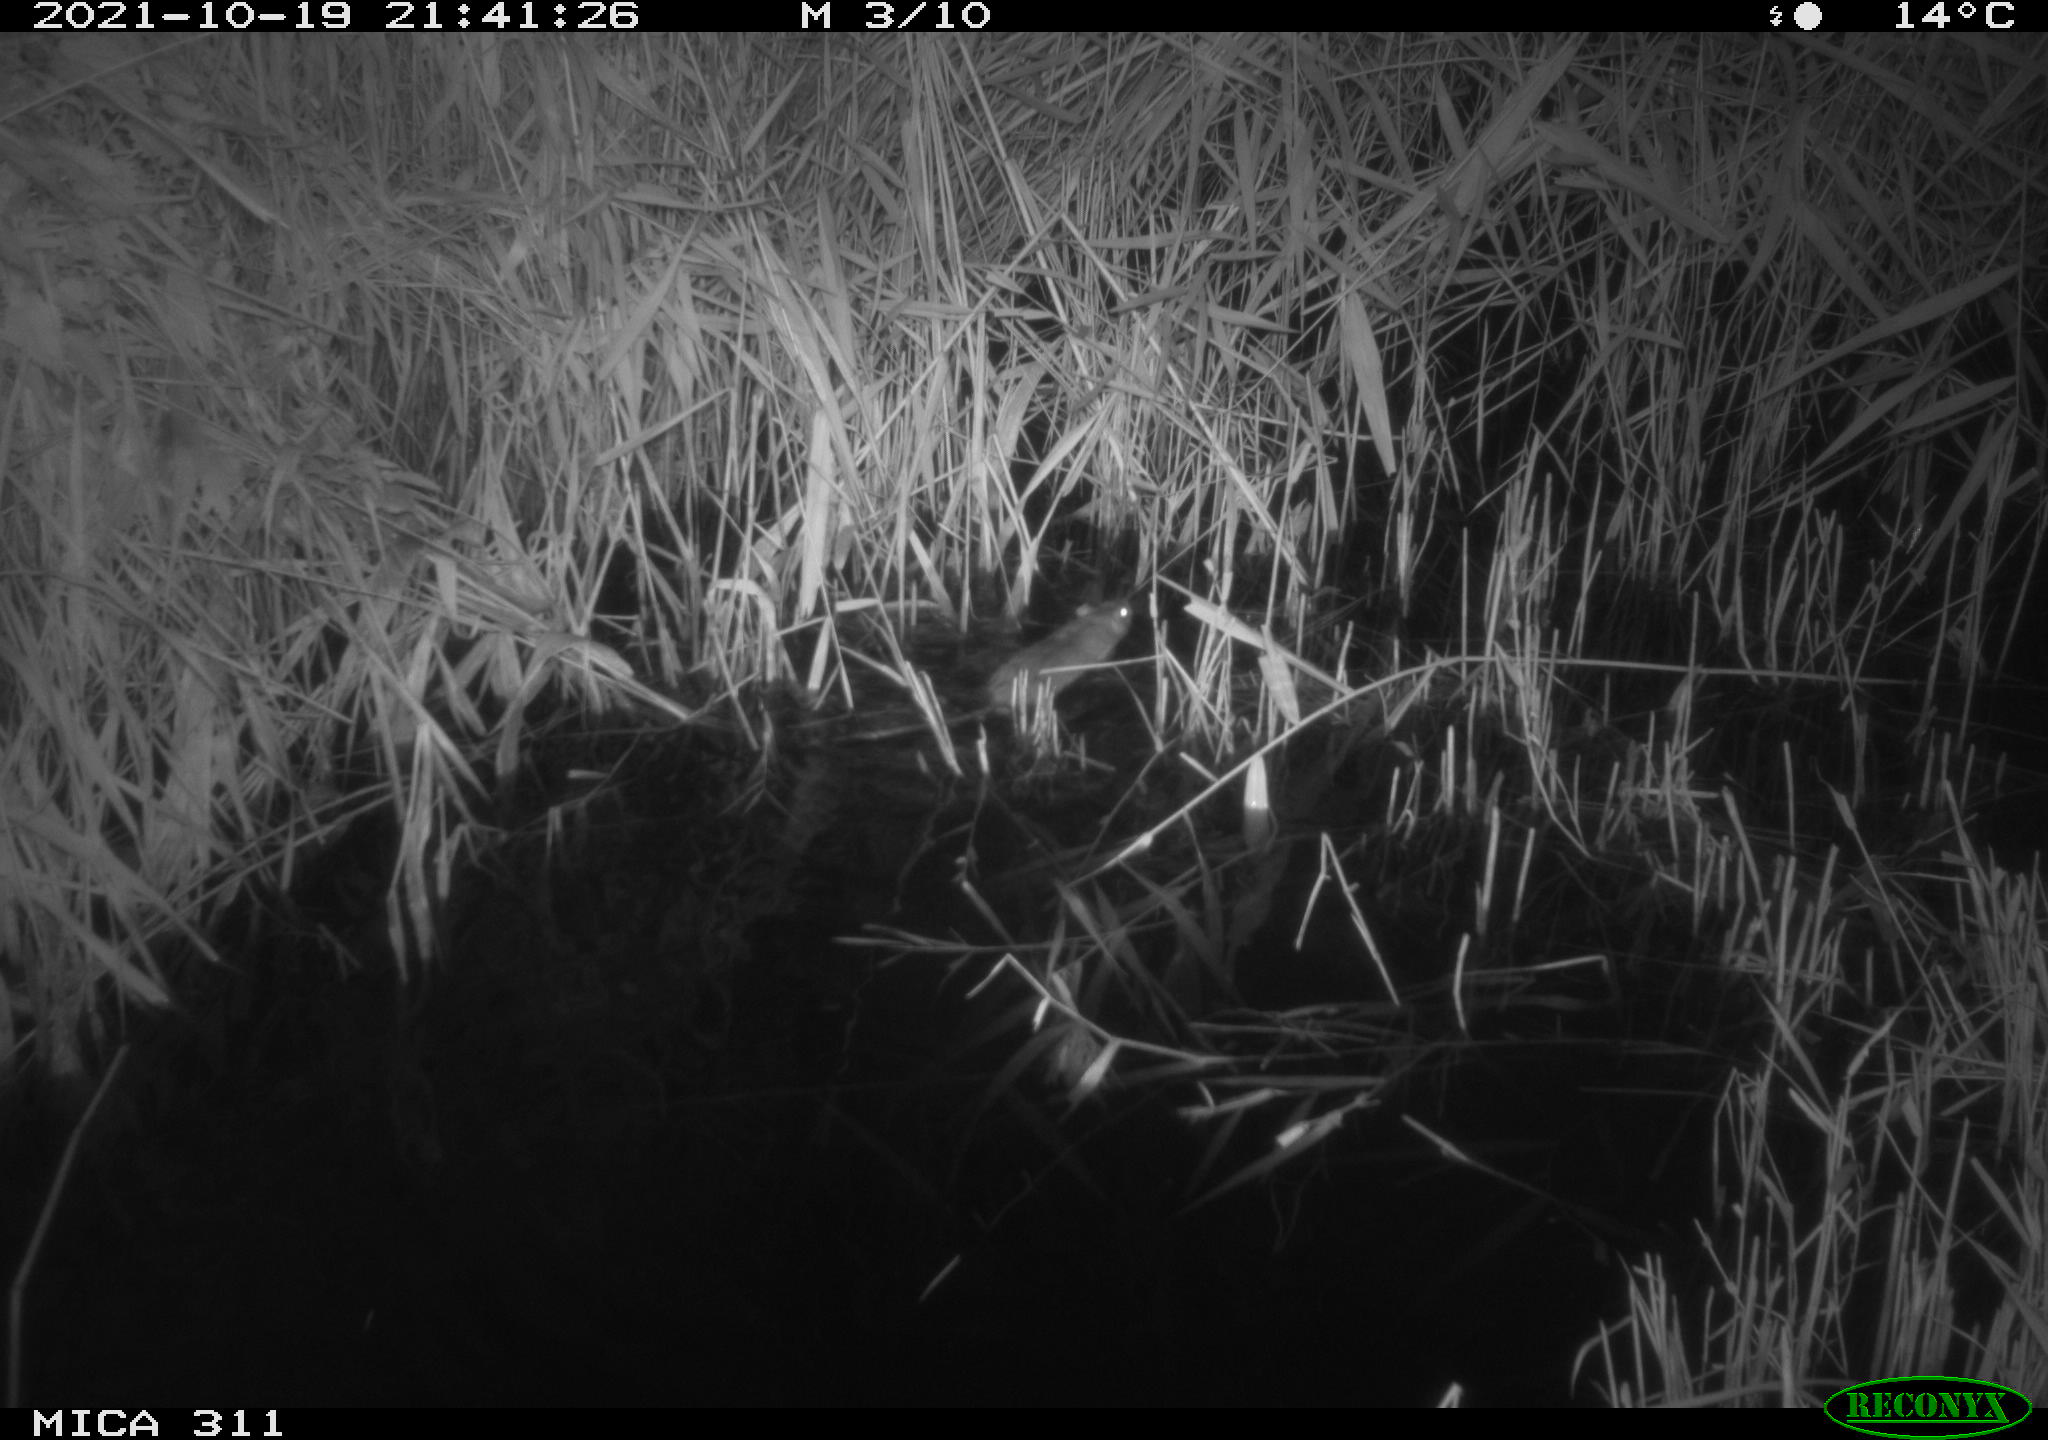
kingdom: Animalia
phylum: Chordata
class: Mammalia
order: Rodentia
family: Muridae
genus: Rattus
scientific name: Rattus norvegicus
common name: Brown rat
